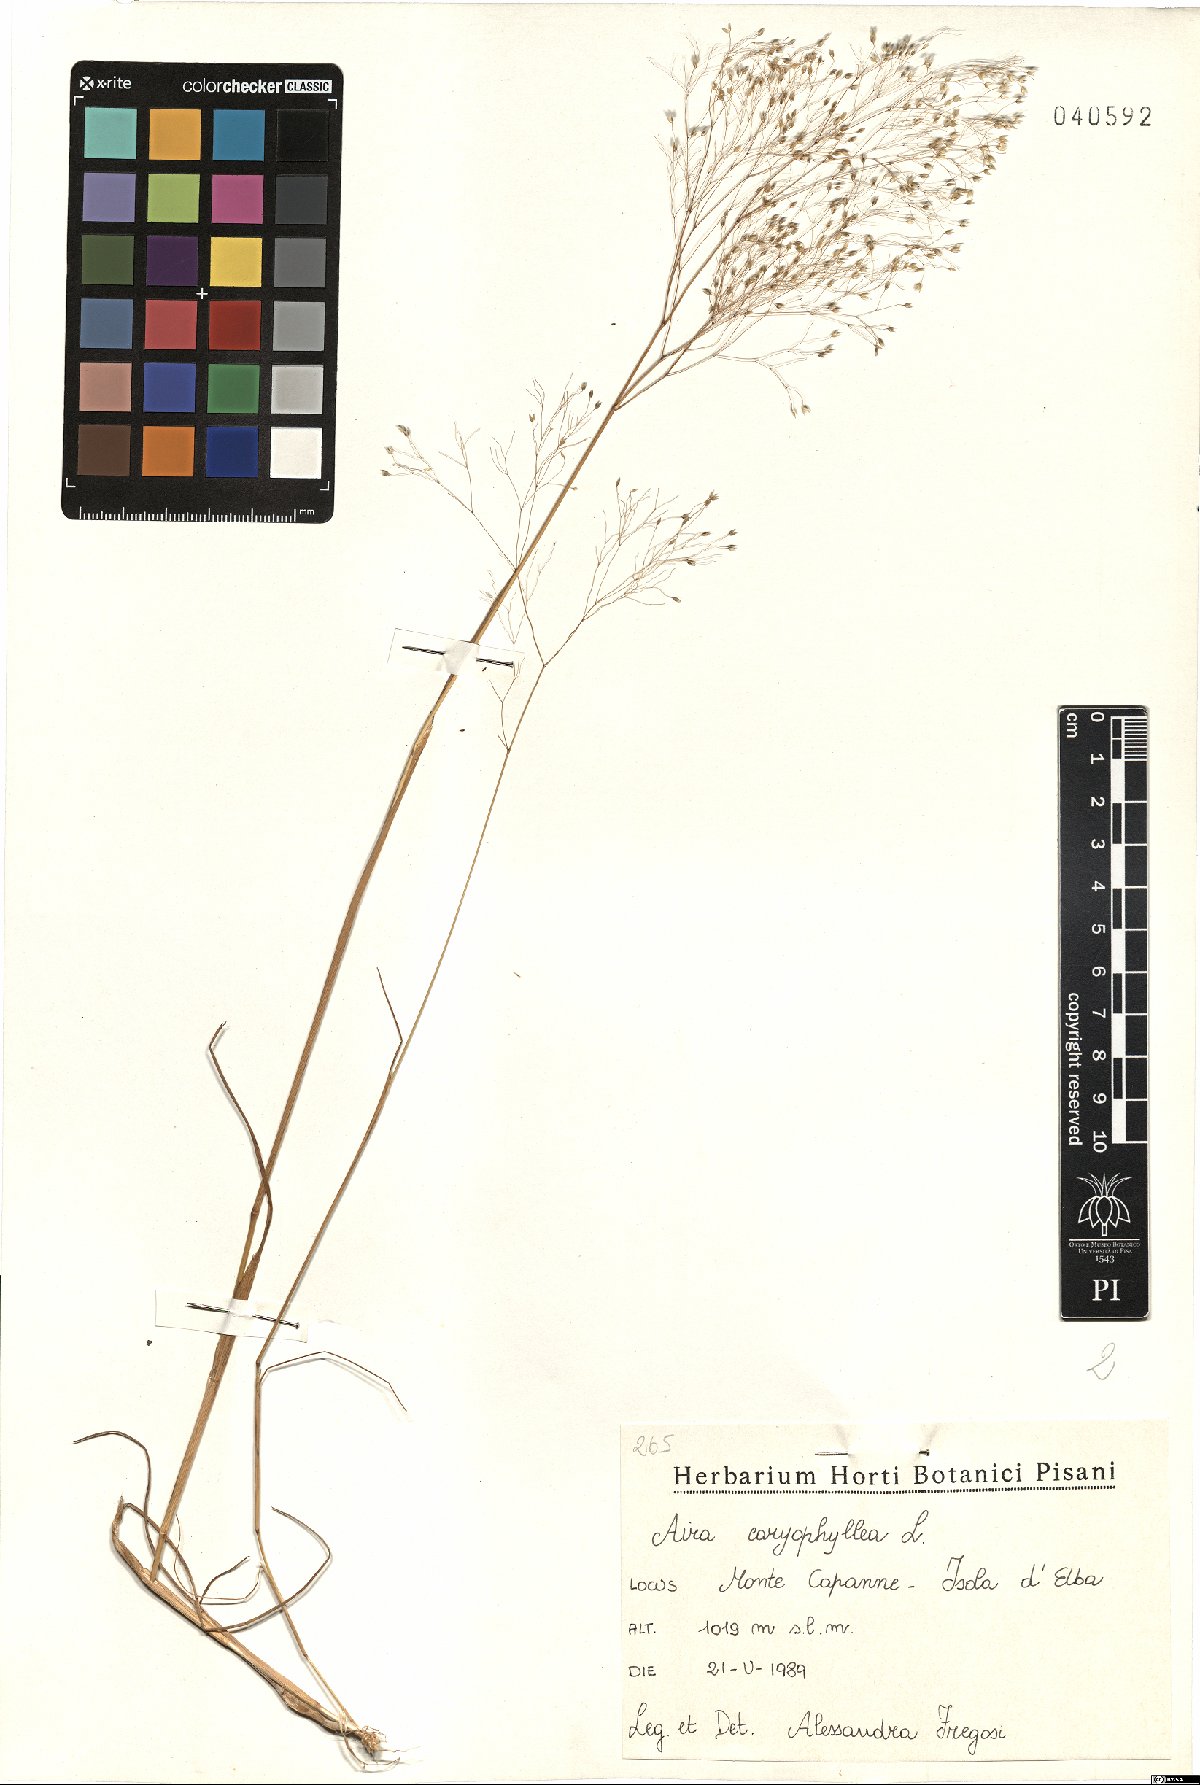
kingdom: Plantae
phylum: Tracheophyta
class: Liliopsida
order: Poales
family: Poaceae
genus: Aira
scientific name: Aira caryophyllea
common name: Silver hairgrass
